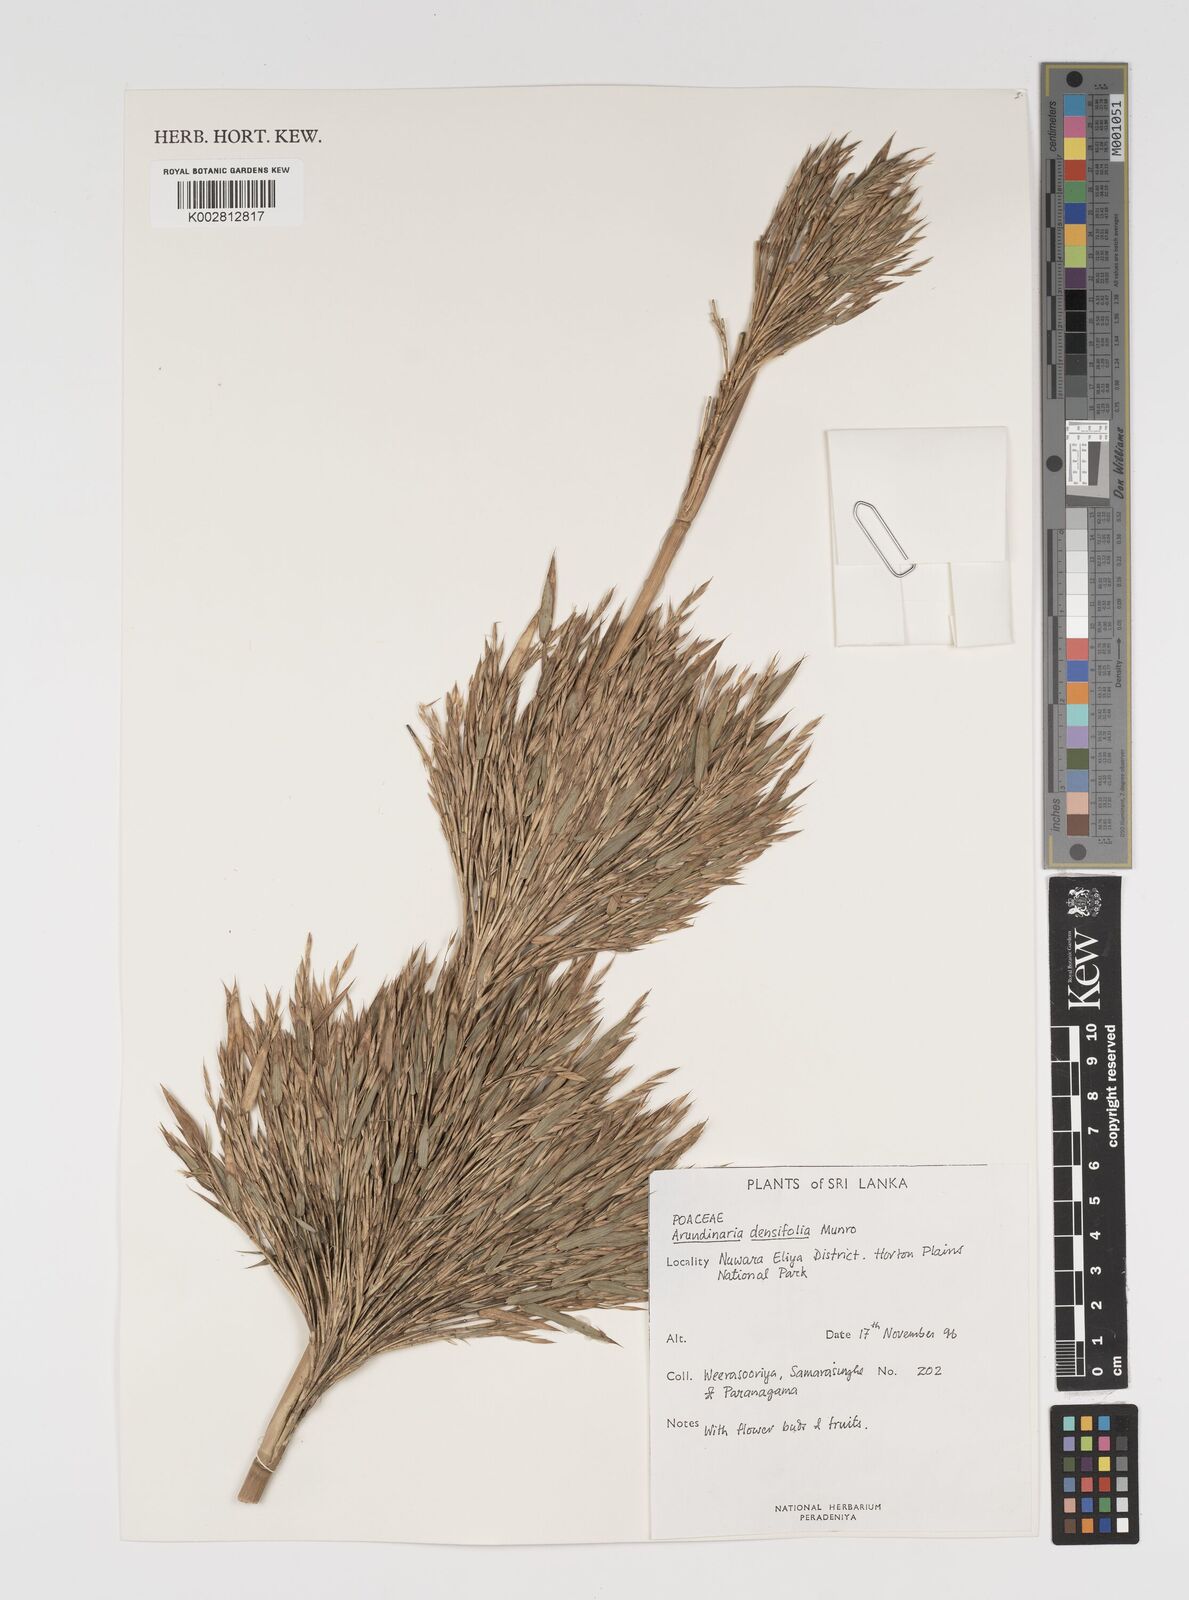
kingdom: Plantae
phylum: Tracheophyta
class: Liliopsida
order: Poales
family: Poaceae
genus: Kuruna
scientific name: Kuruna densifolia
